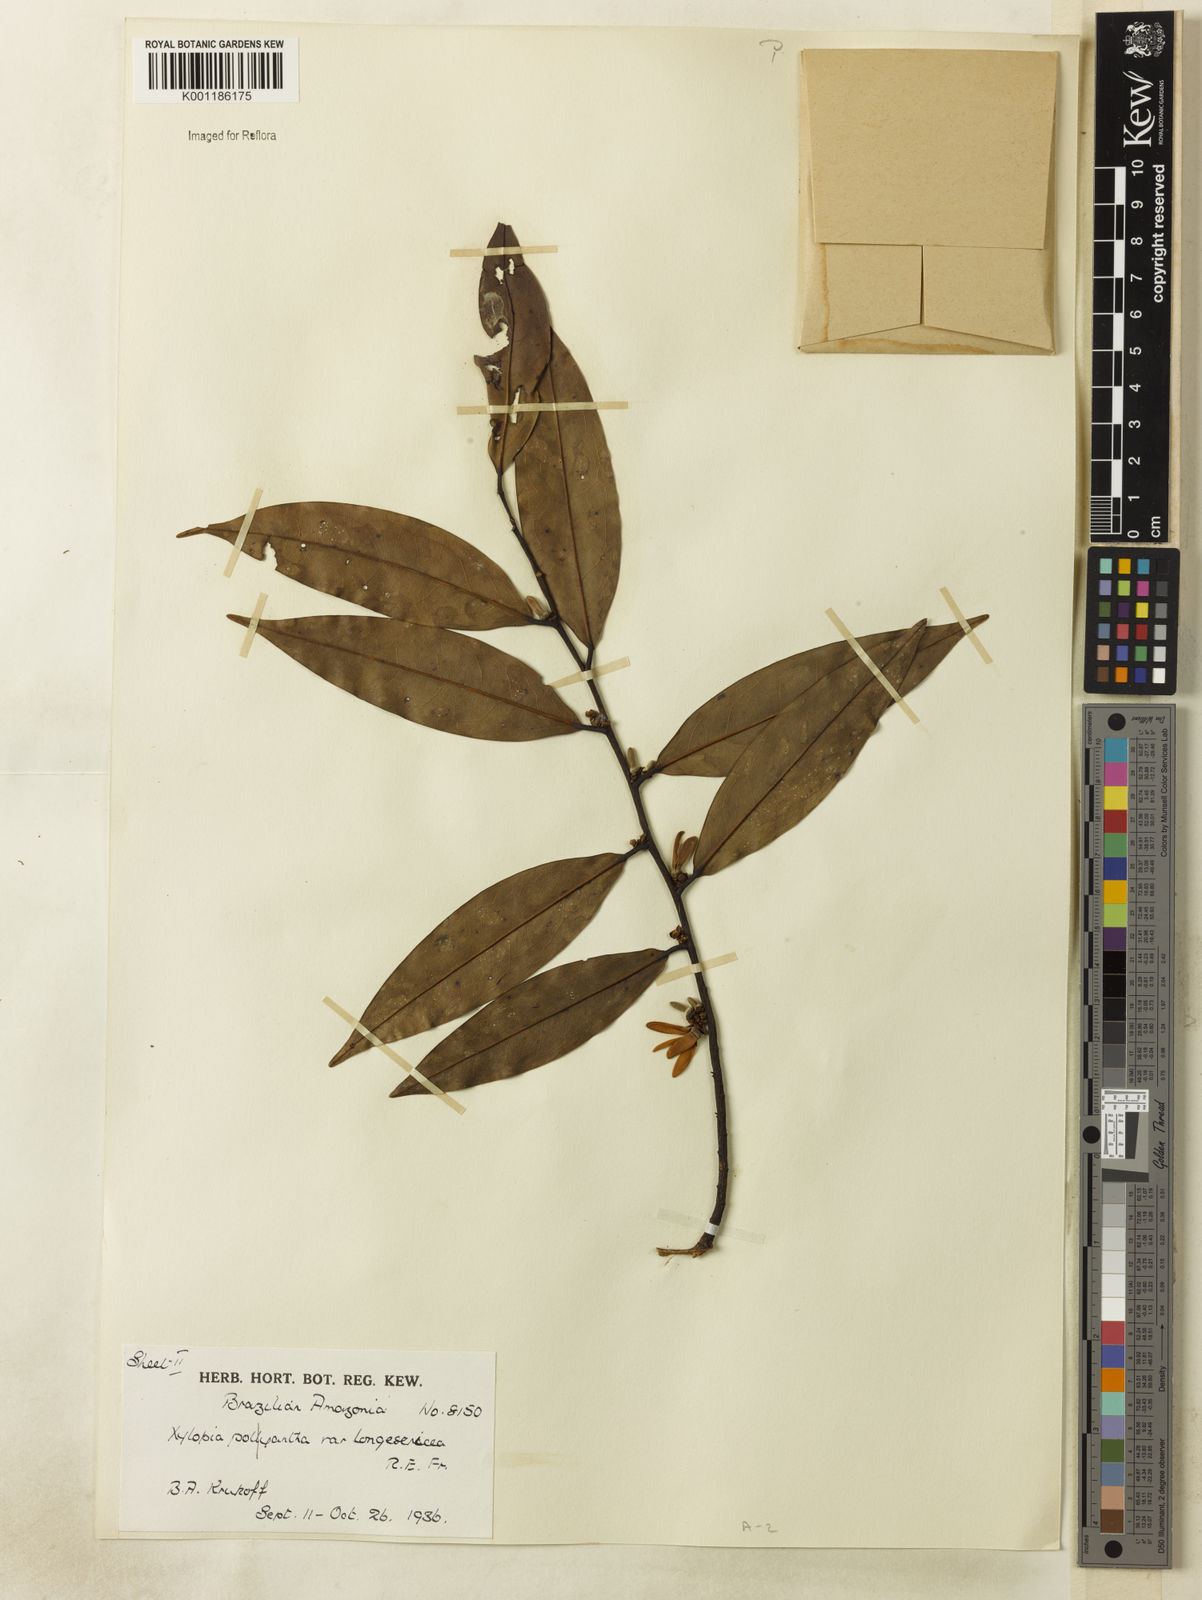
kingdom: Plantae
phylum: Tracheophyta
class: Magnoliopsida
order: Magnoliales
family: Annonaceae
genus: Xylopia
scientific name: Xylopia polyantha
